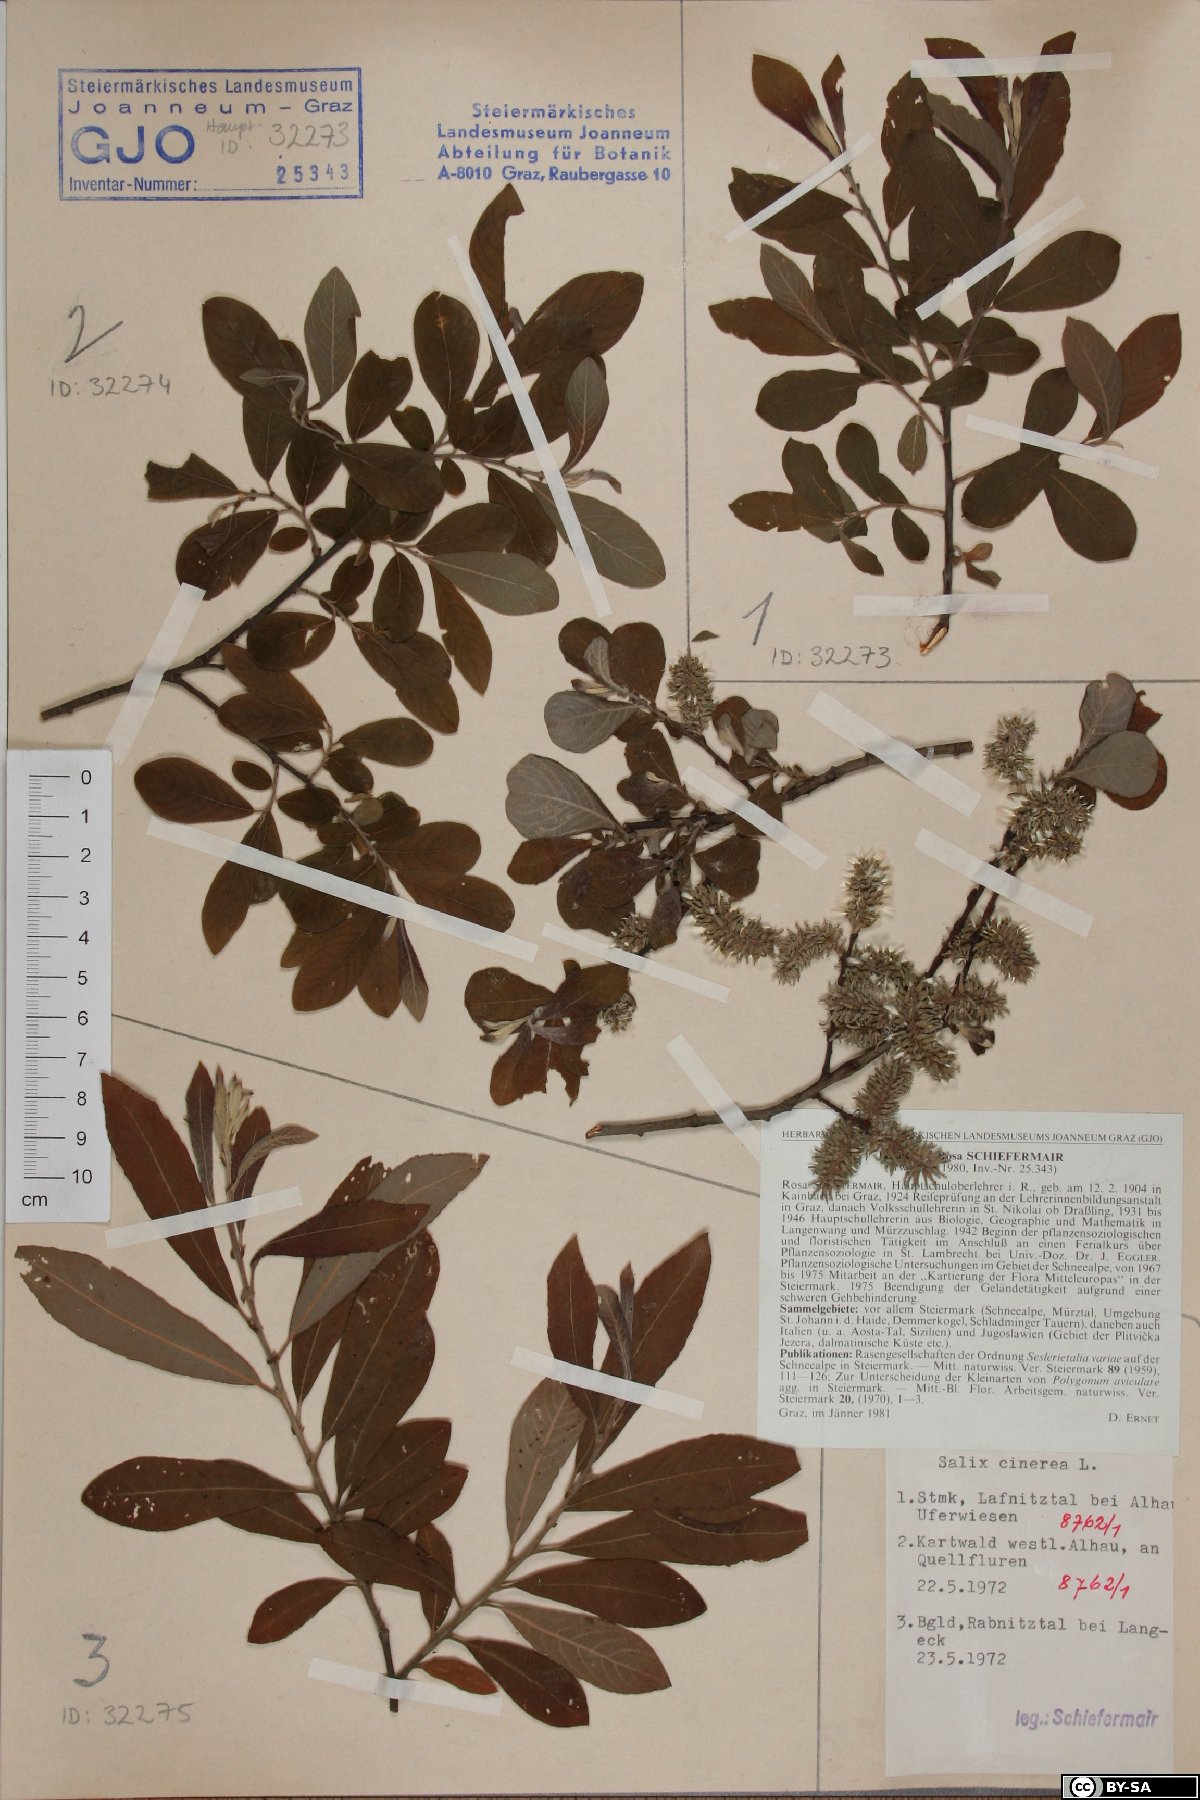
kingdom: Plantae
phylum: Tracheophyta
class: Magnoliopsida
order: Malpighiales
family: Salicaceae
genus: Salix
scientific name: Salix cinerea
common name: Common sallow
